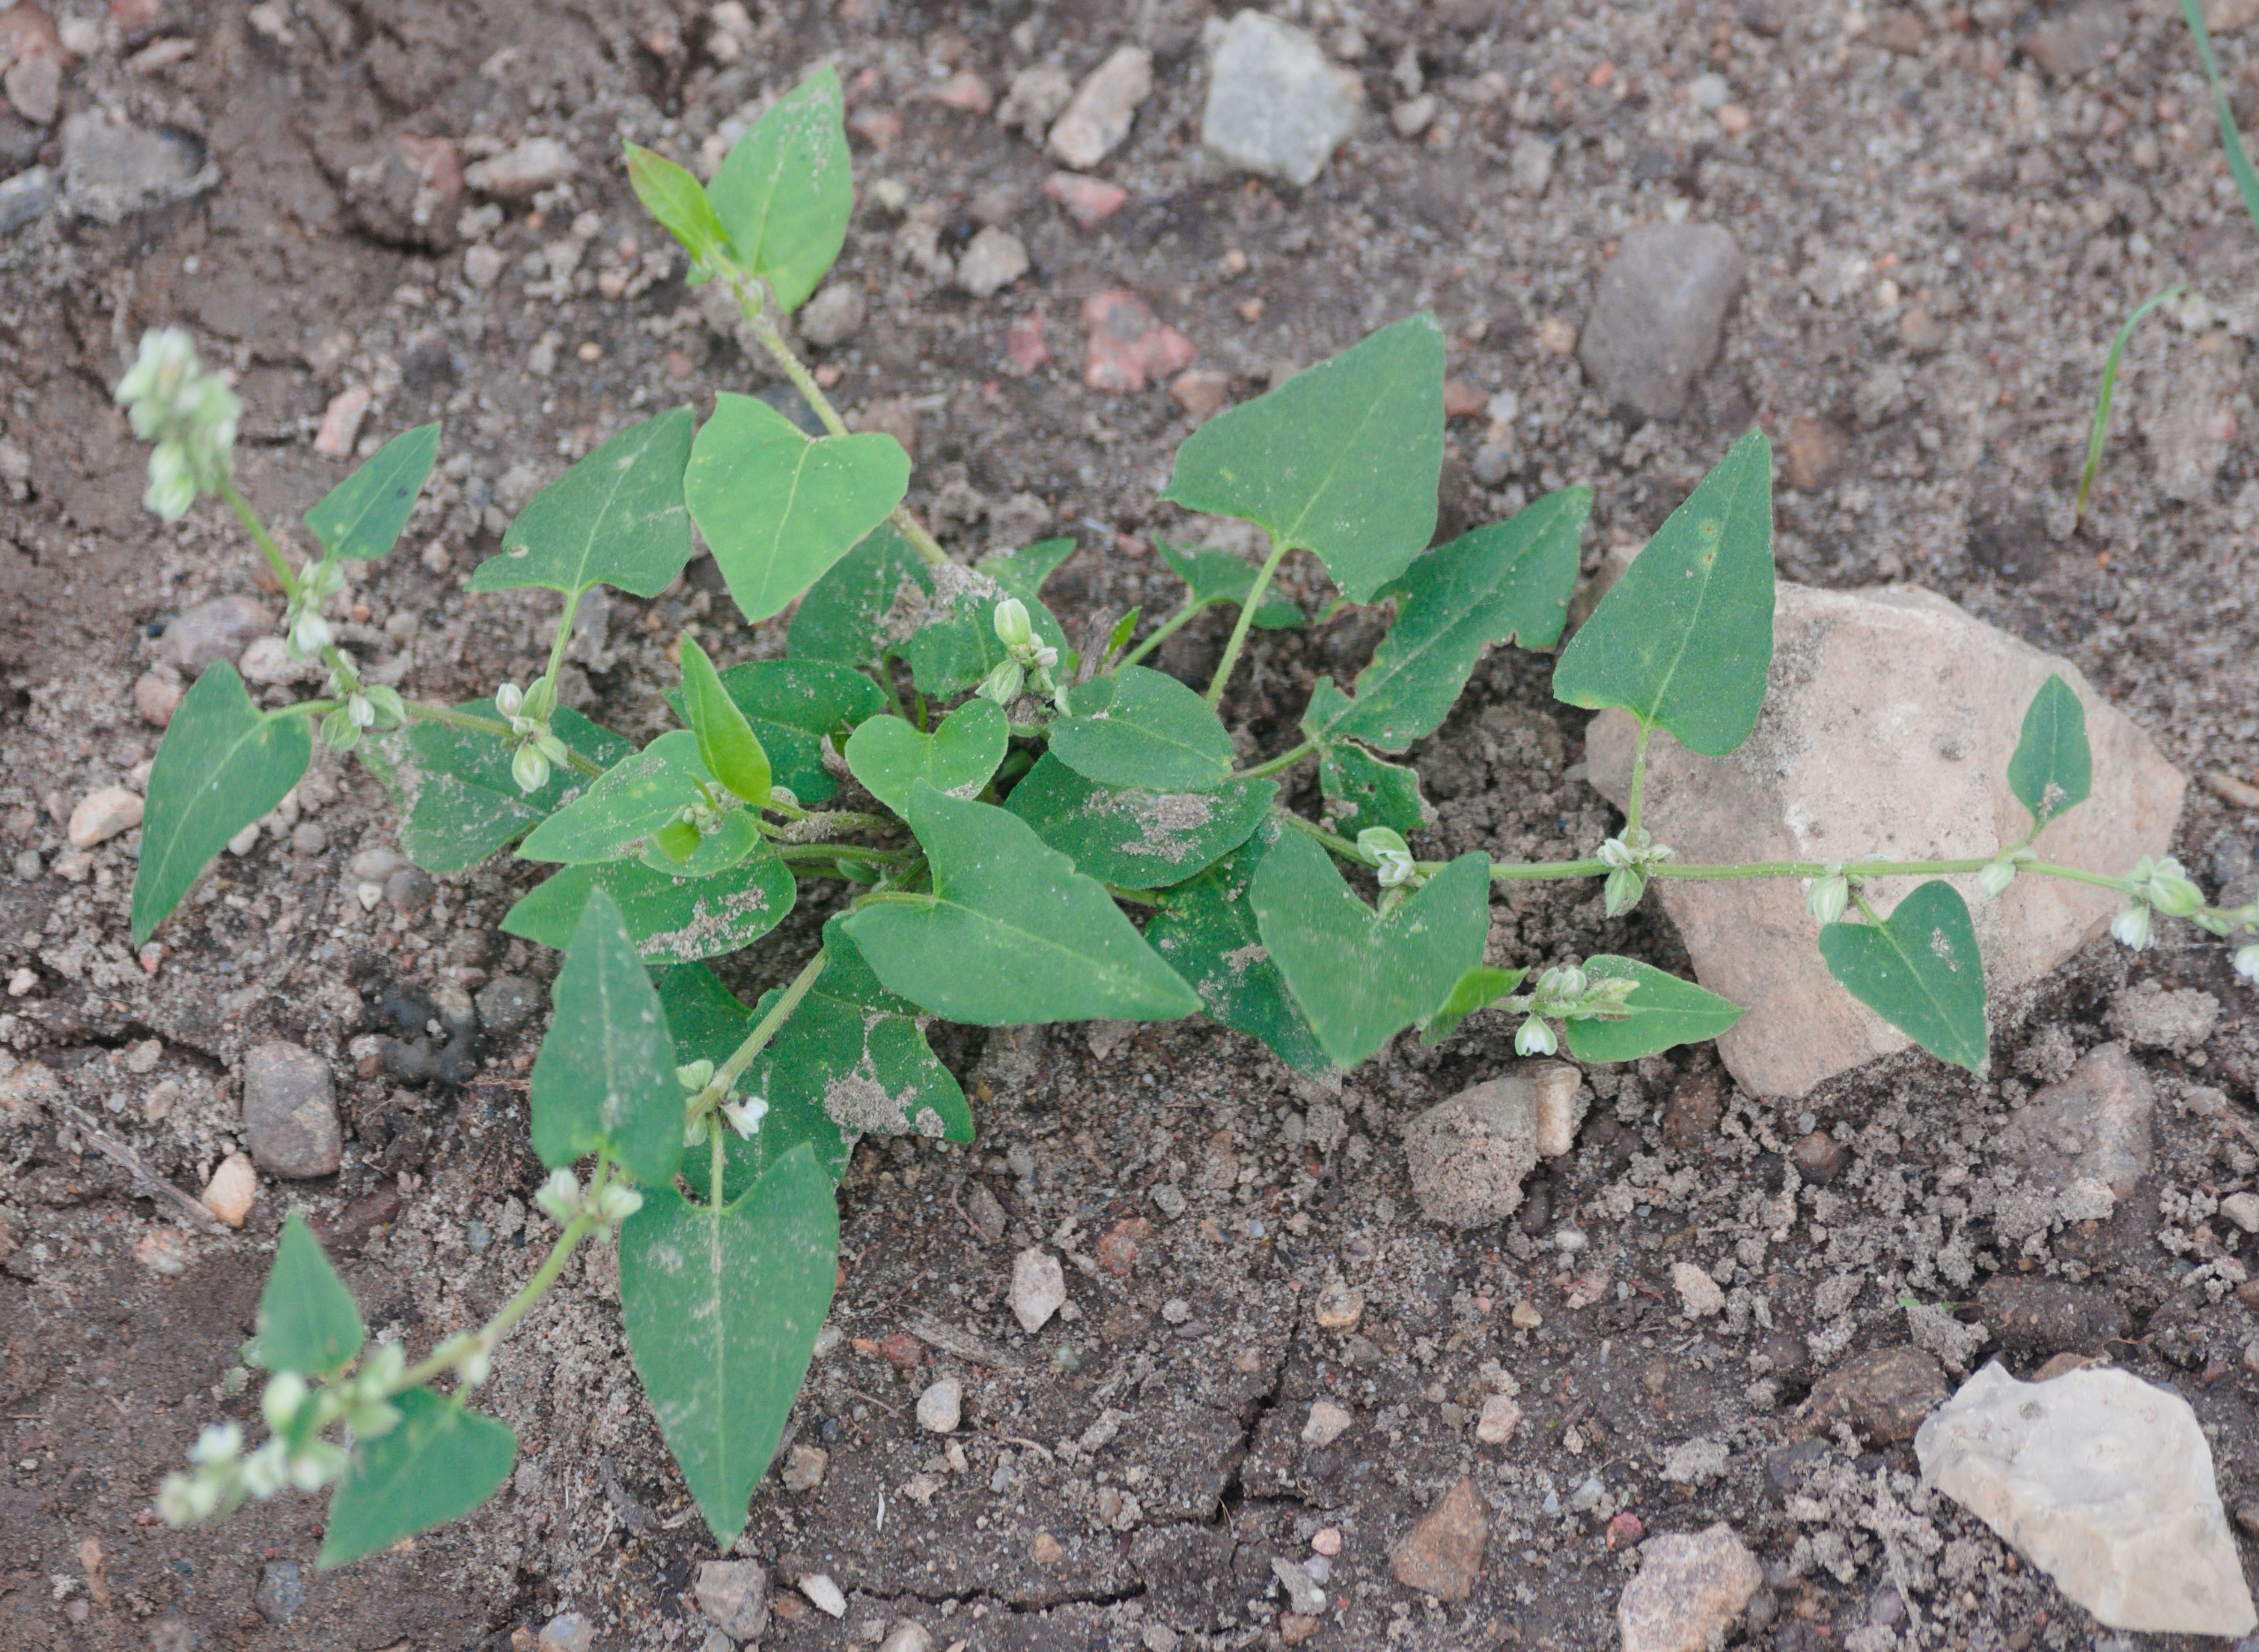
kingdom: Plantae
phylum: Tracheophyta
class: Magnoliopsida
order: Caryophyllales
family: Polygonaceae
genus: Fallopia
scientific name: Fallopia convolvulus
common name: Snerle-pileurt
